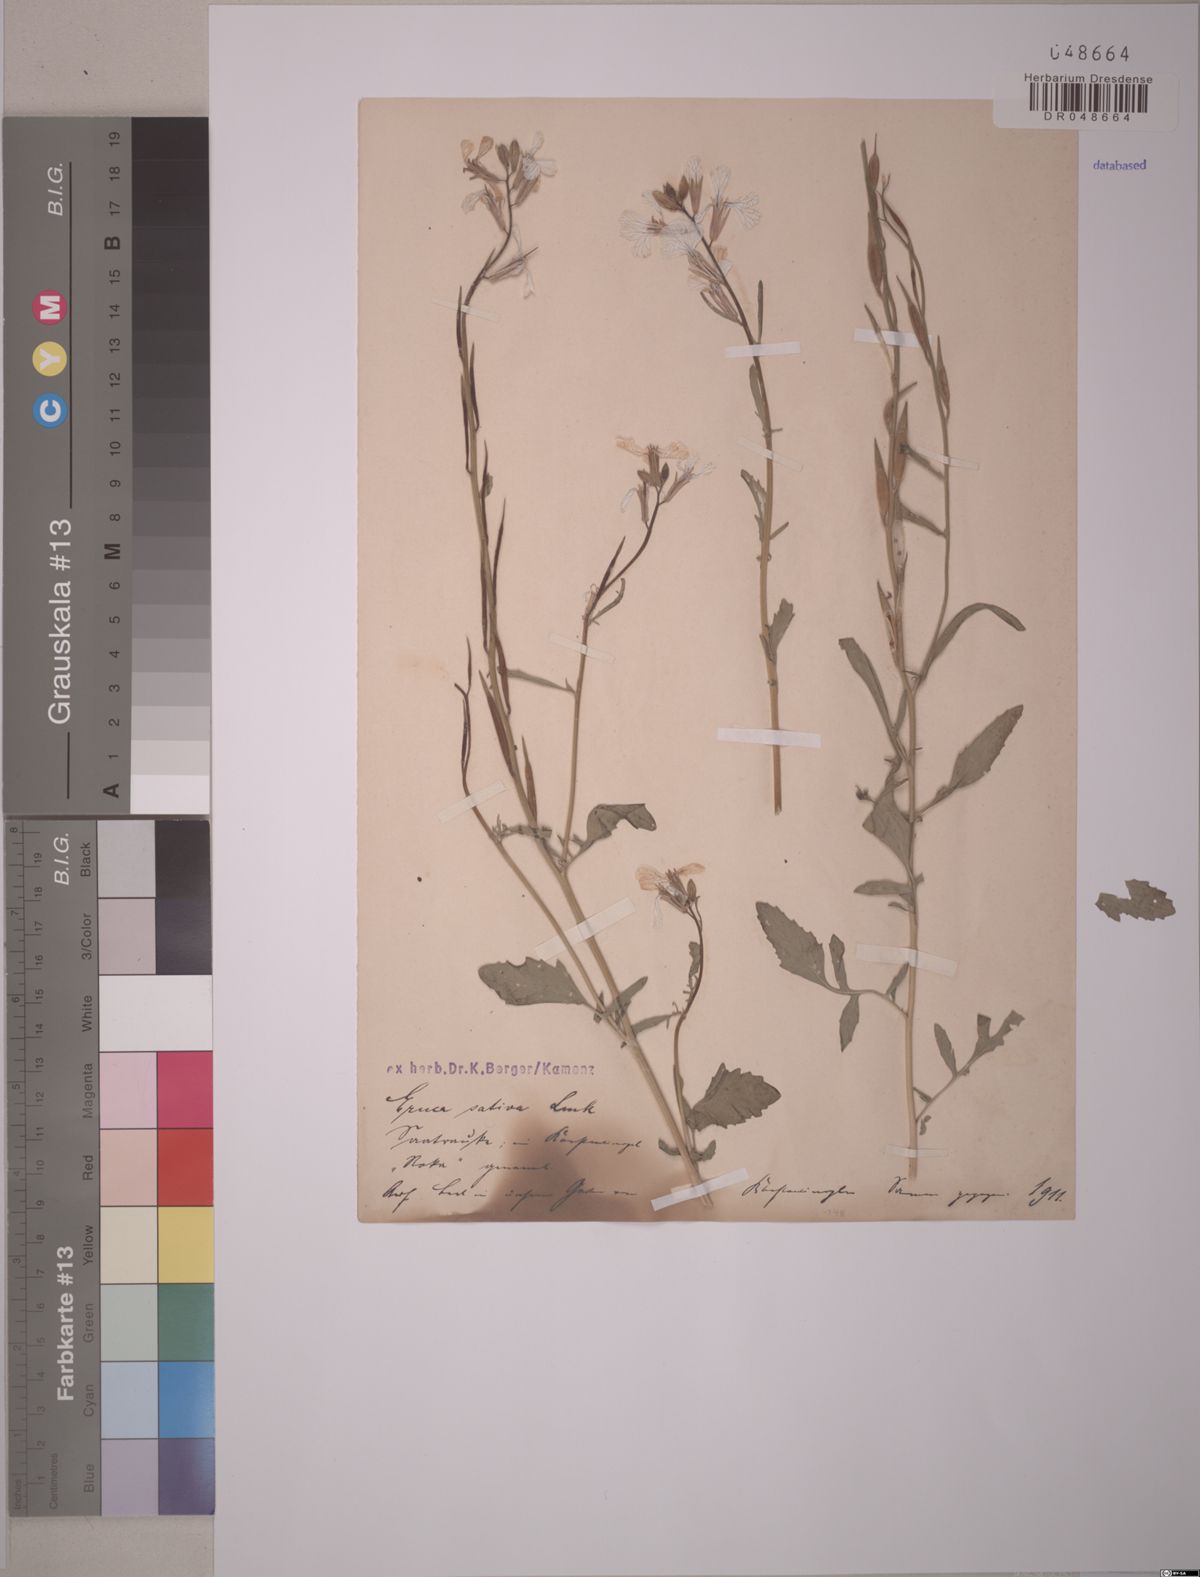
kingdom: Plantae
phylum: Tracheophyta
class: Magnoliopsida
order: Brassicales
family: Brassicaceae
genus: Eruca
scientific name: Eruca vesicaria
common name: Garden rocket
